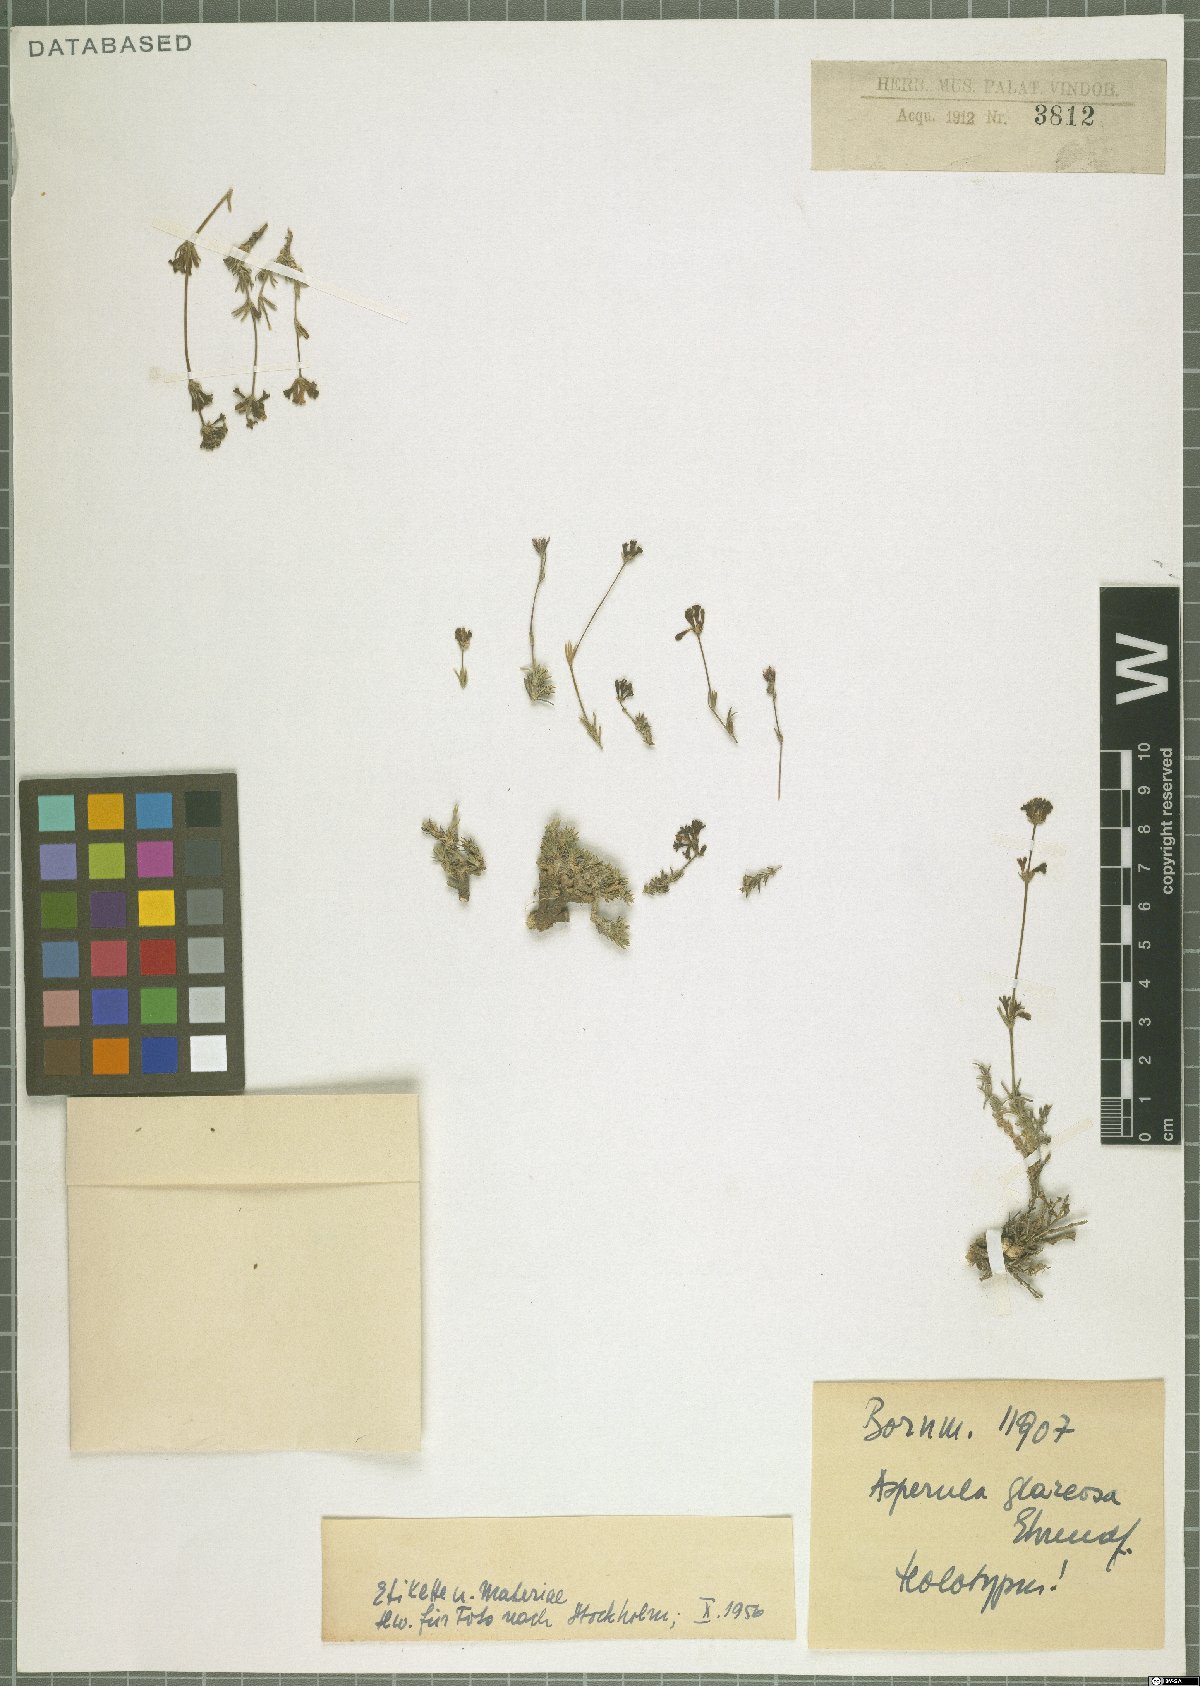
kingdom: Plantae
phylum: Tracheophyta
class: Magnoliopsida
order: Gentianales
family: Rubiaceae
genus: Cynanchica
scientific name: Cynanchica glareosa
